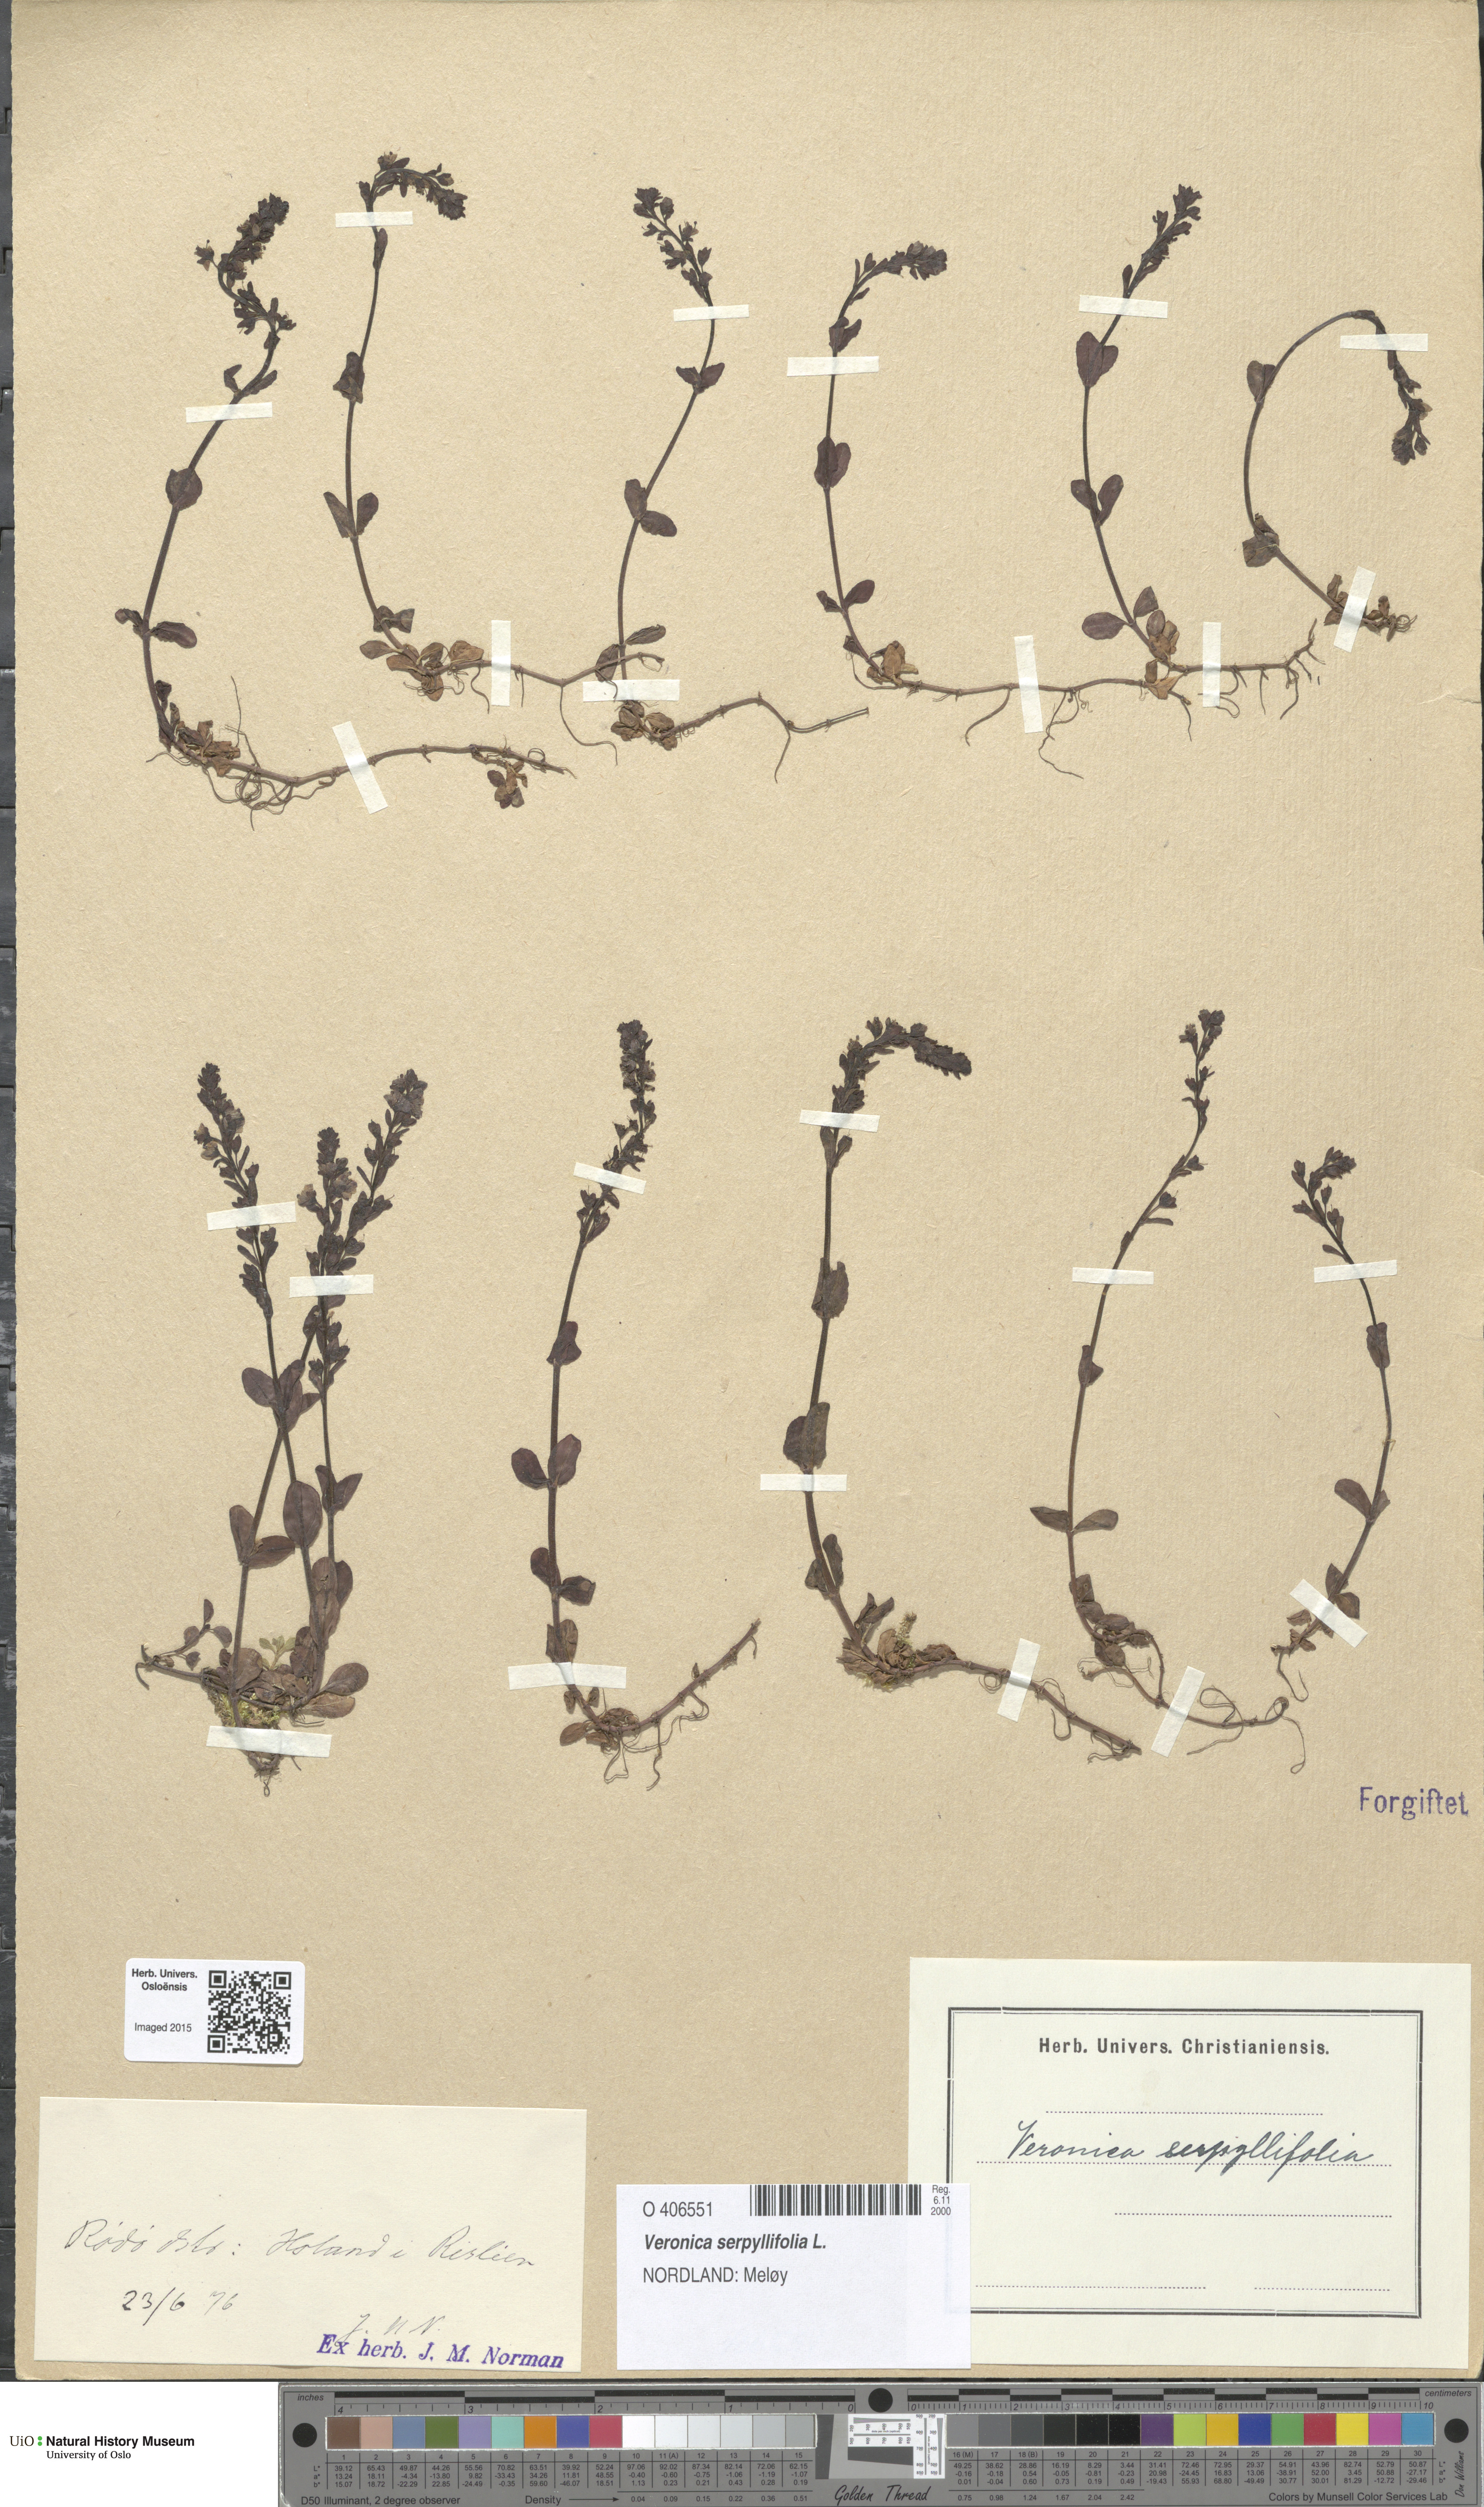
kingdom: Plantae
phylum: Tracheophyta
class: Magnoliopsida
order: Lamiales
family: Plantaginaceae
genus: Veronica
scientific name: Veronica serpyllifolia
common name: Thyme-leaved speedwell
